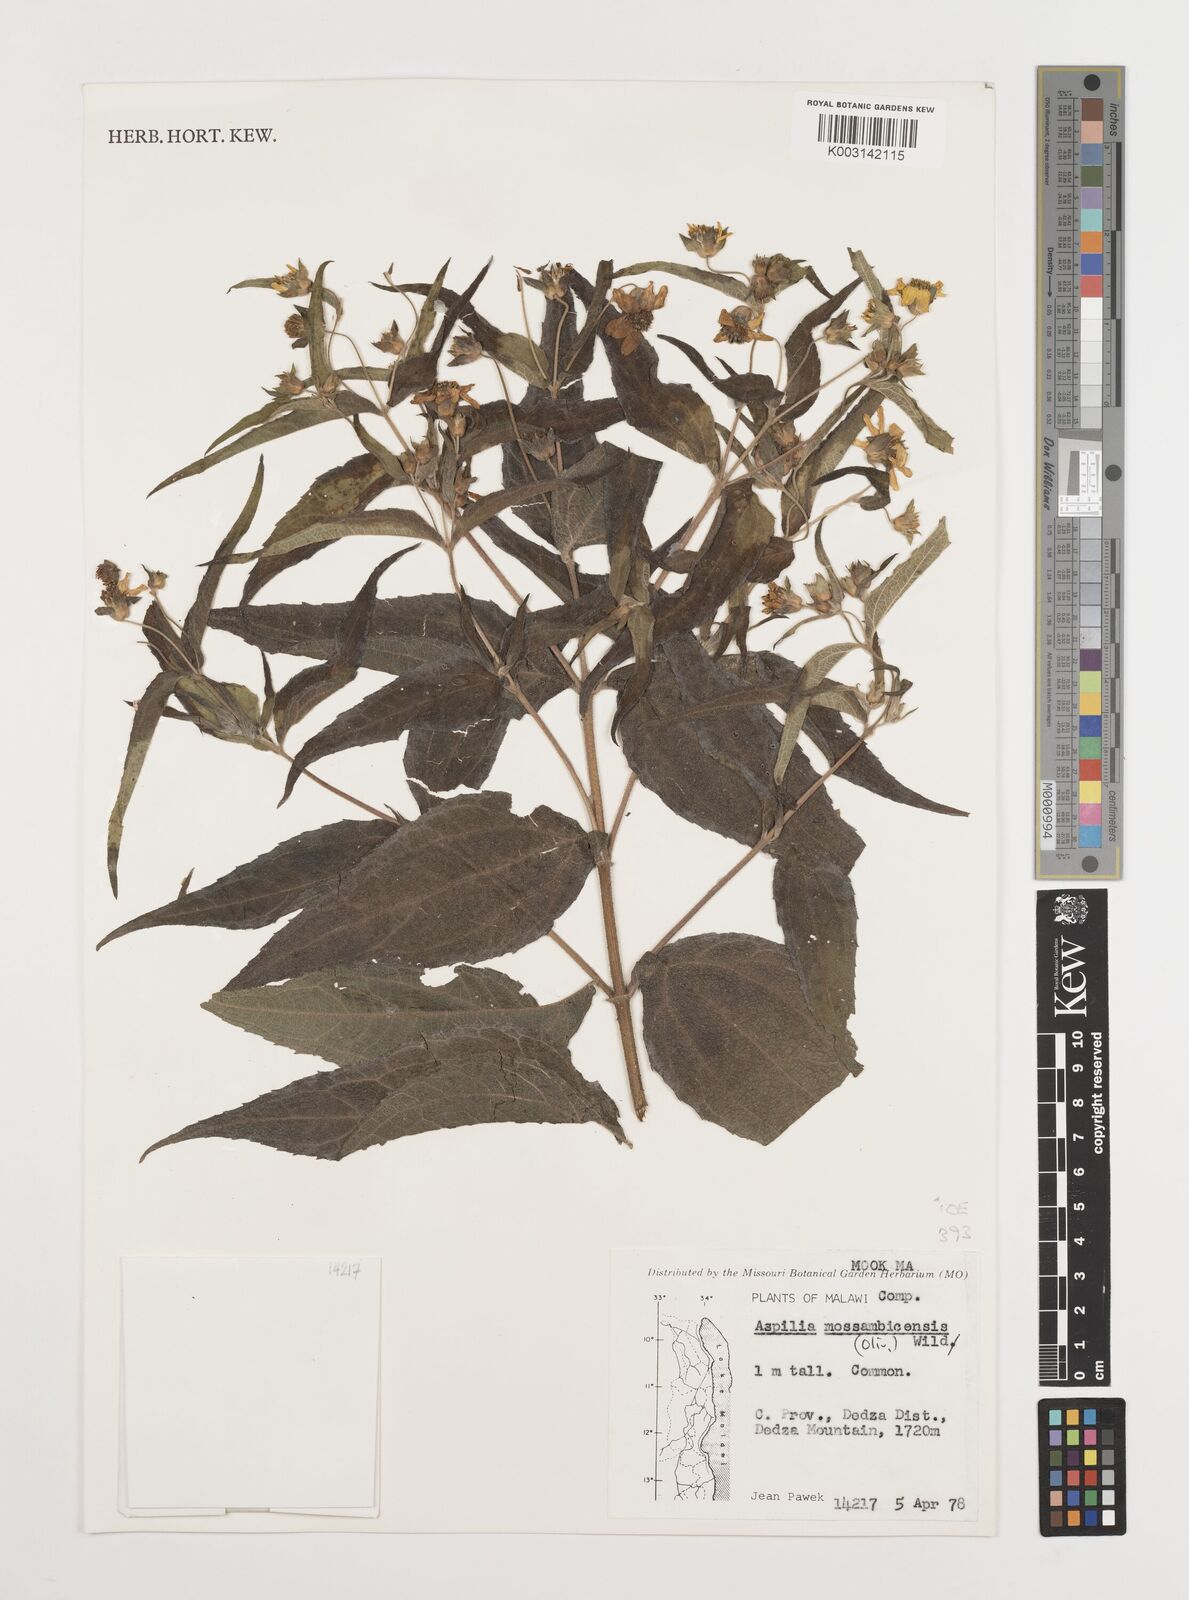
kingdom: Plantae
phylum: Tracheophyta
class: Magnoliopsida
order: Asterales
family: Asteraceae
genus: Aspilia
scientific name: Aspilia mossambicensis
